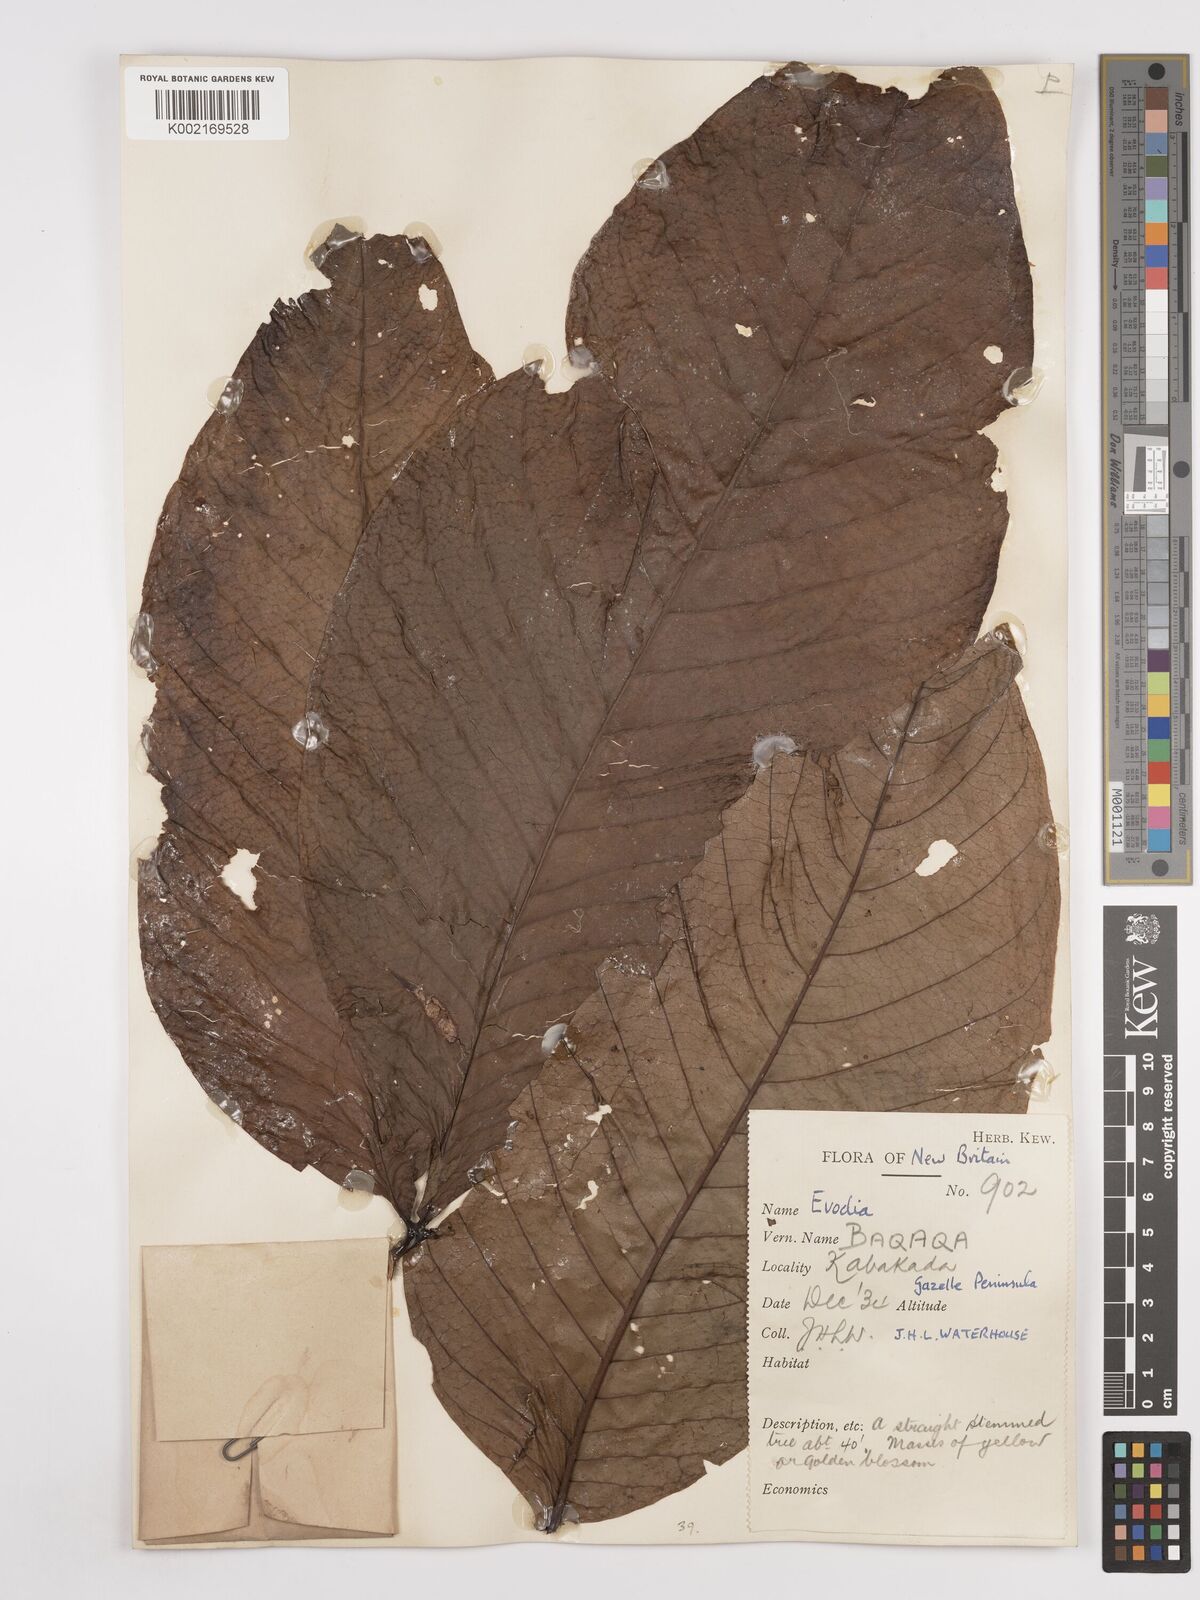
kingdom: Plantae
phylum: Tracheophyta
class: Magnoliopsida
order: Sapindales
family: Rutaceae
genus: Euodia
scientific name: Euodia
